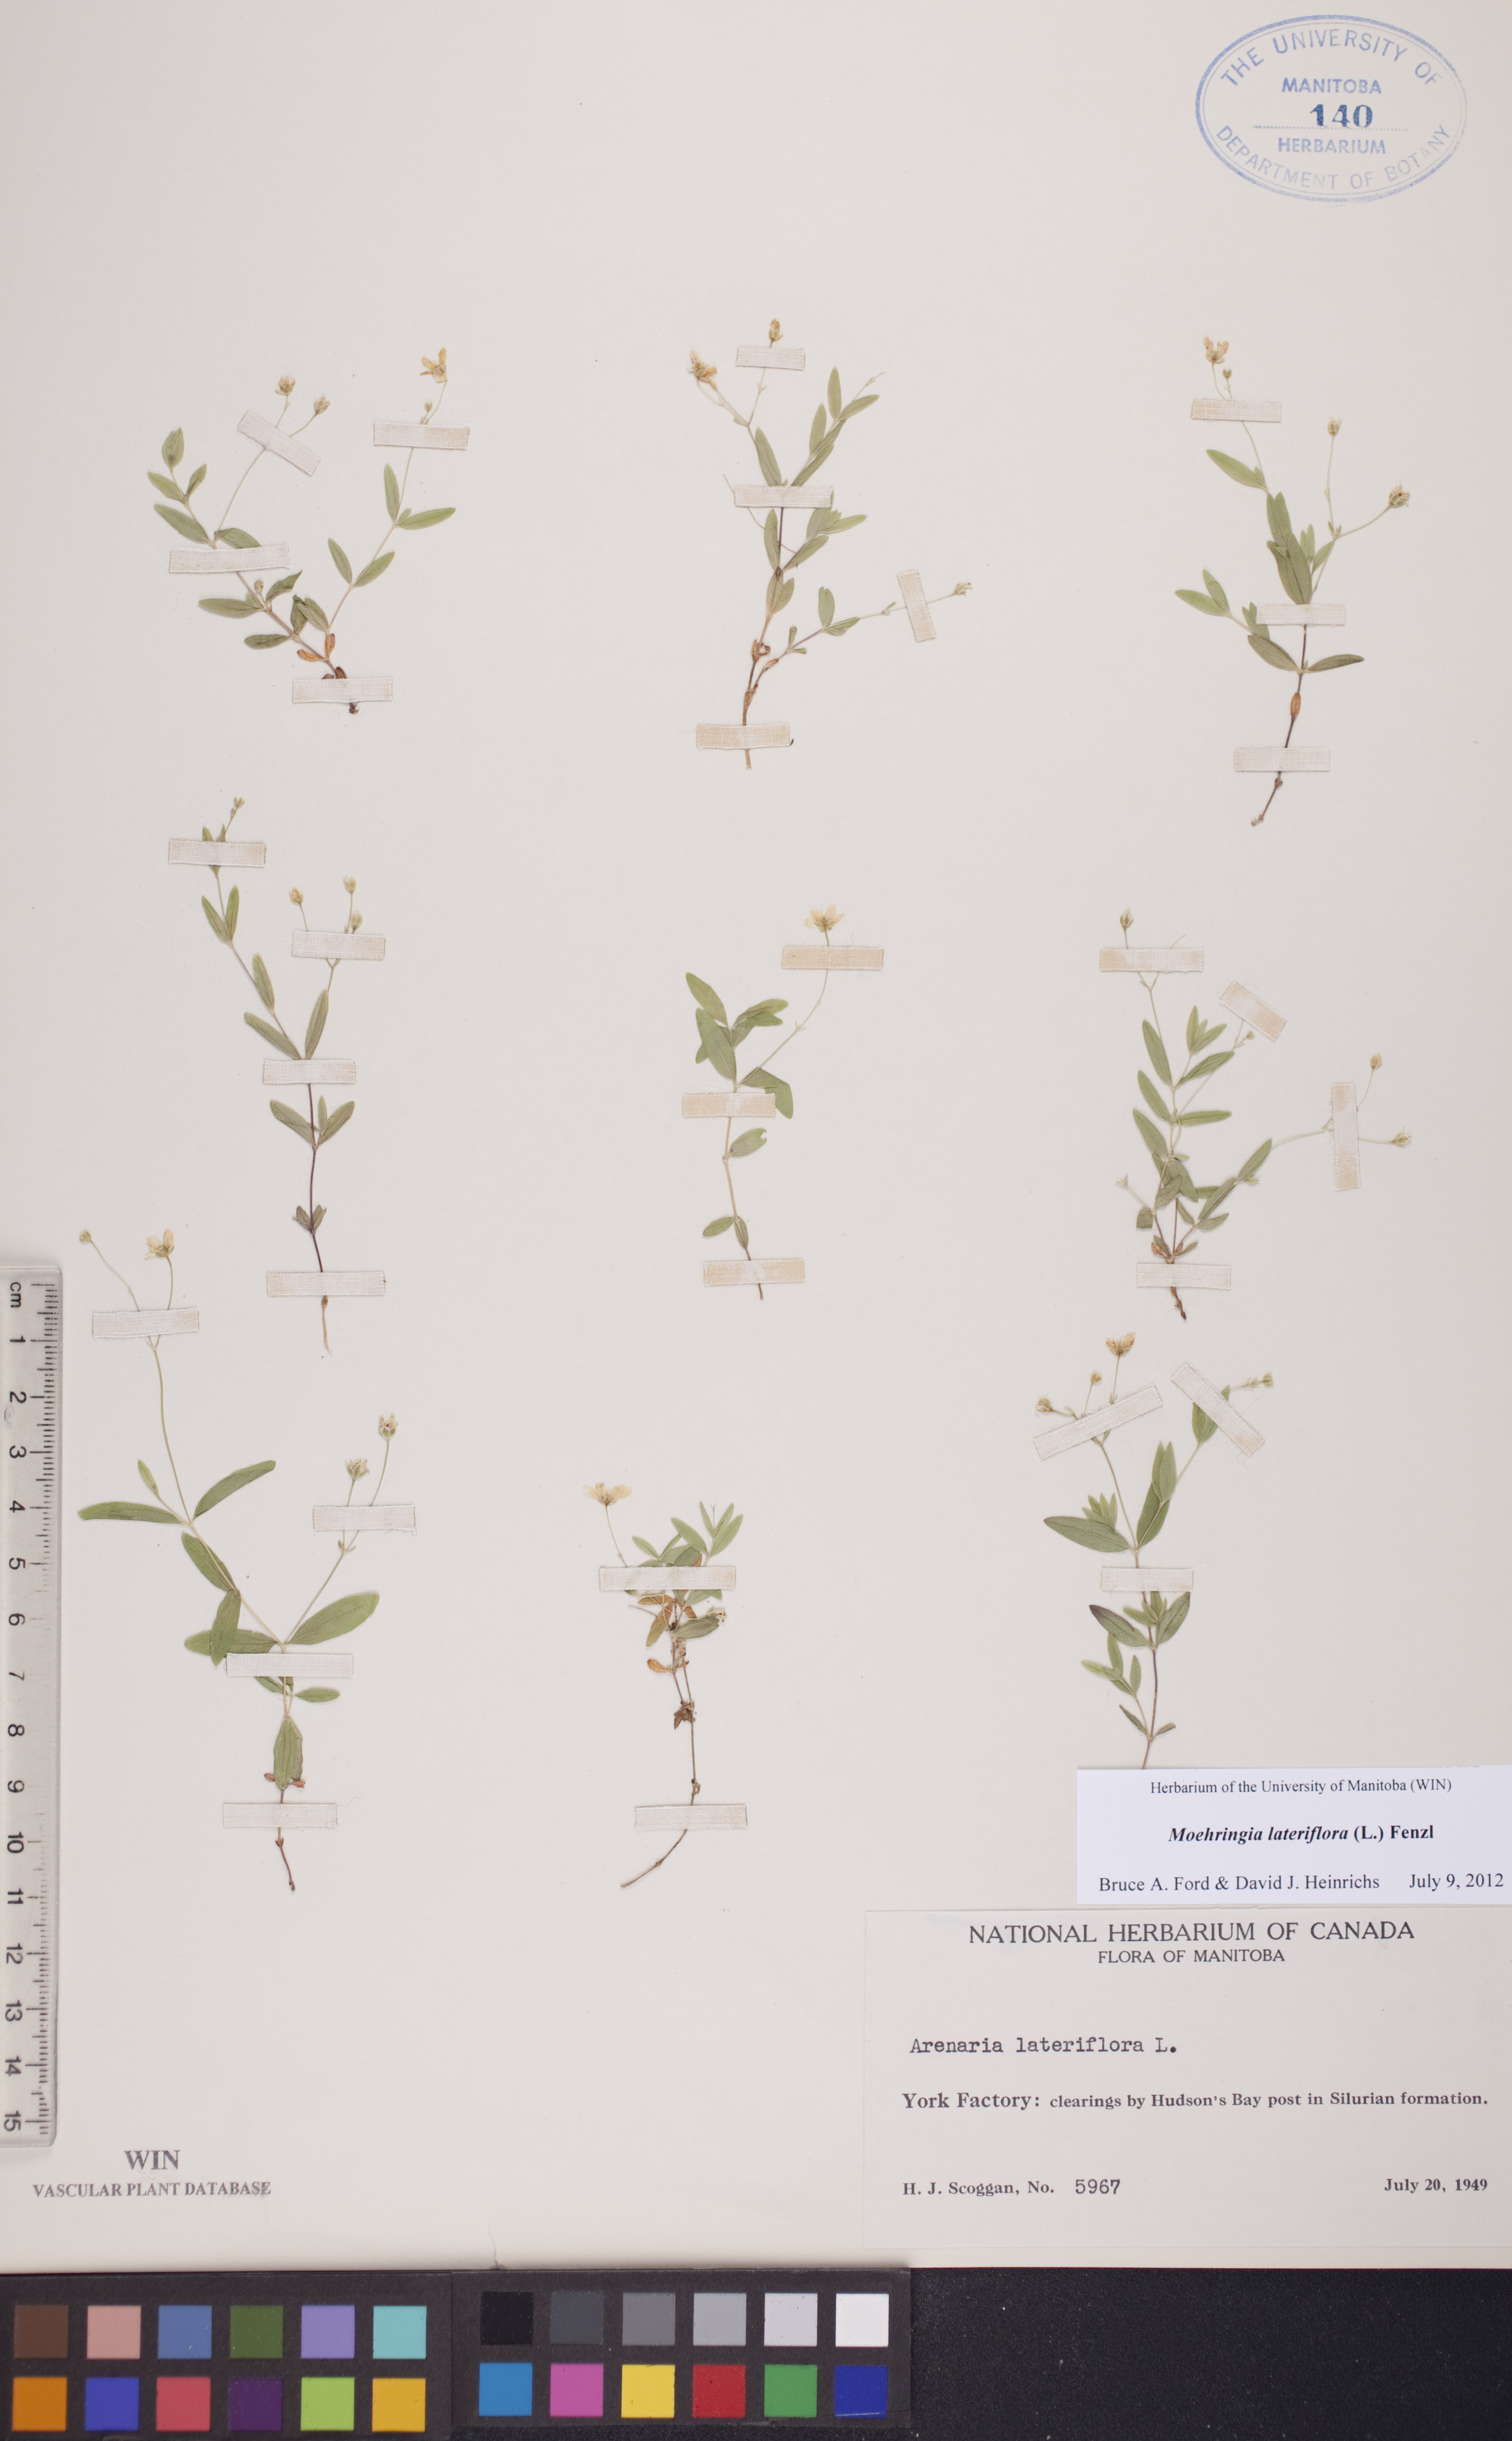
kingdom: Plantae
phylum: Tracheophyta
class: Magnoliopsida
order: Caryophyllales
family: Caryophyllaceae
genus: Moehringia
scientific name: Moehringia lateriflora
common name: Blunt-leaved sandwort
